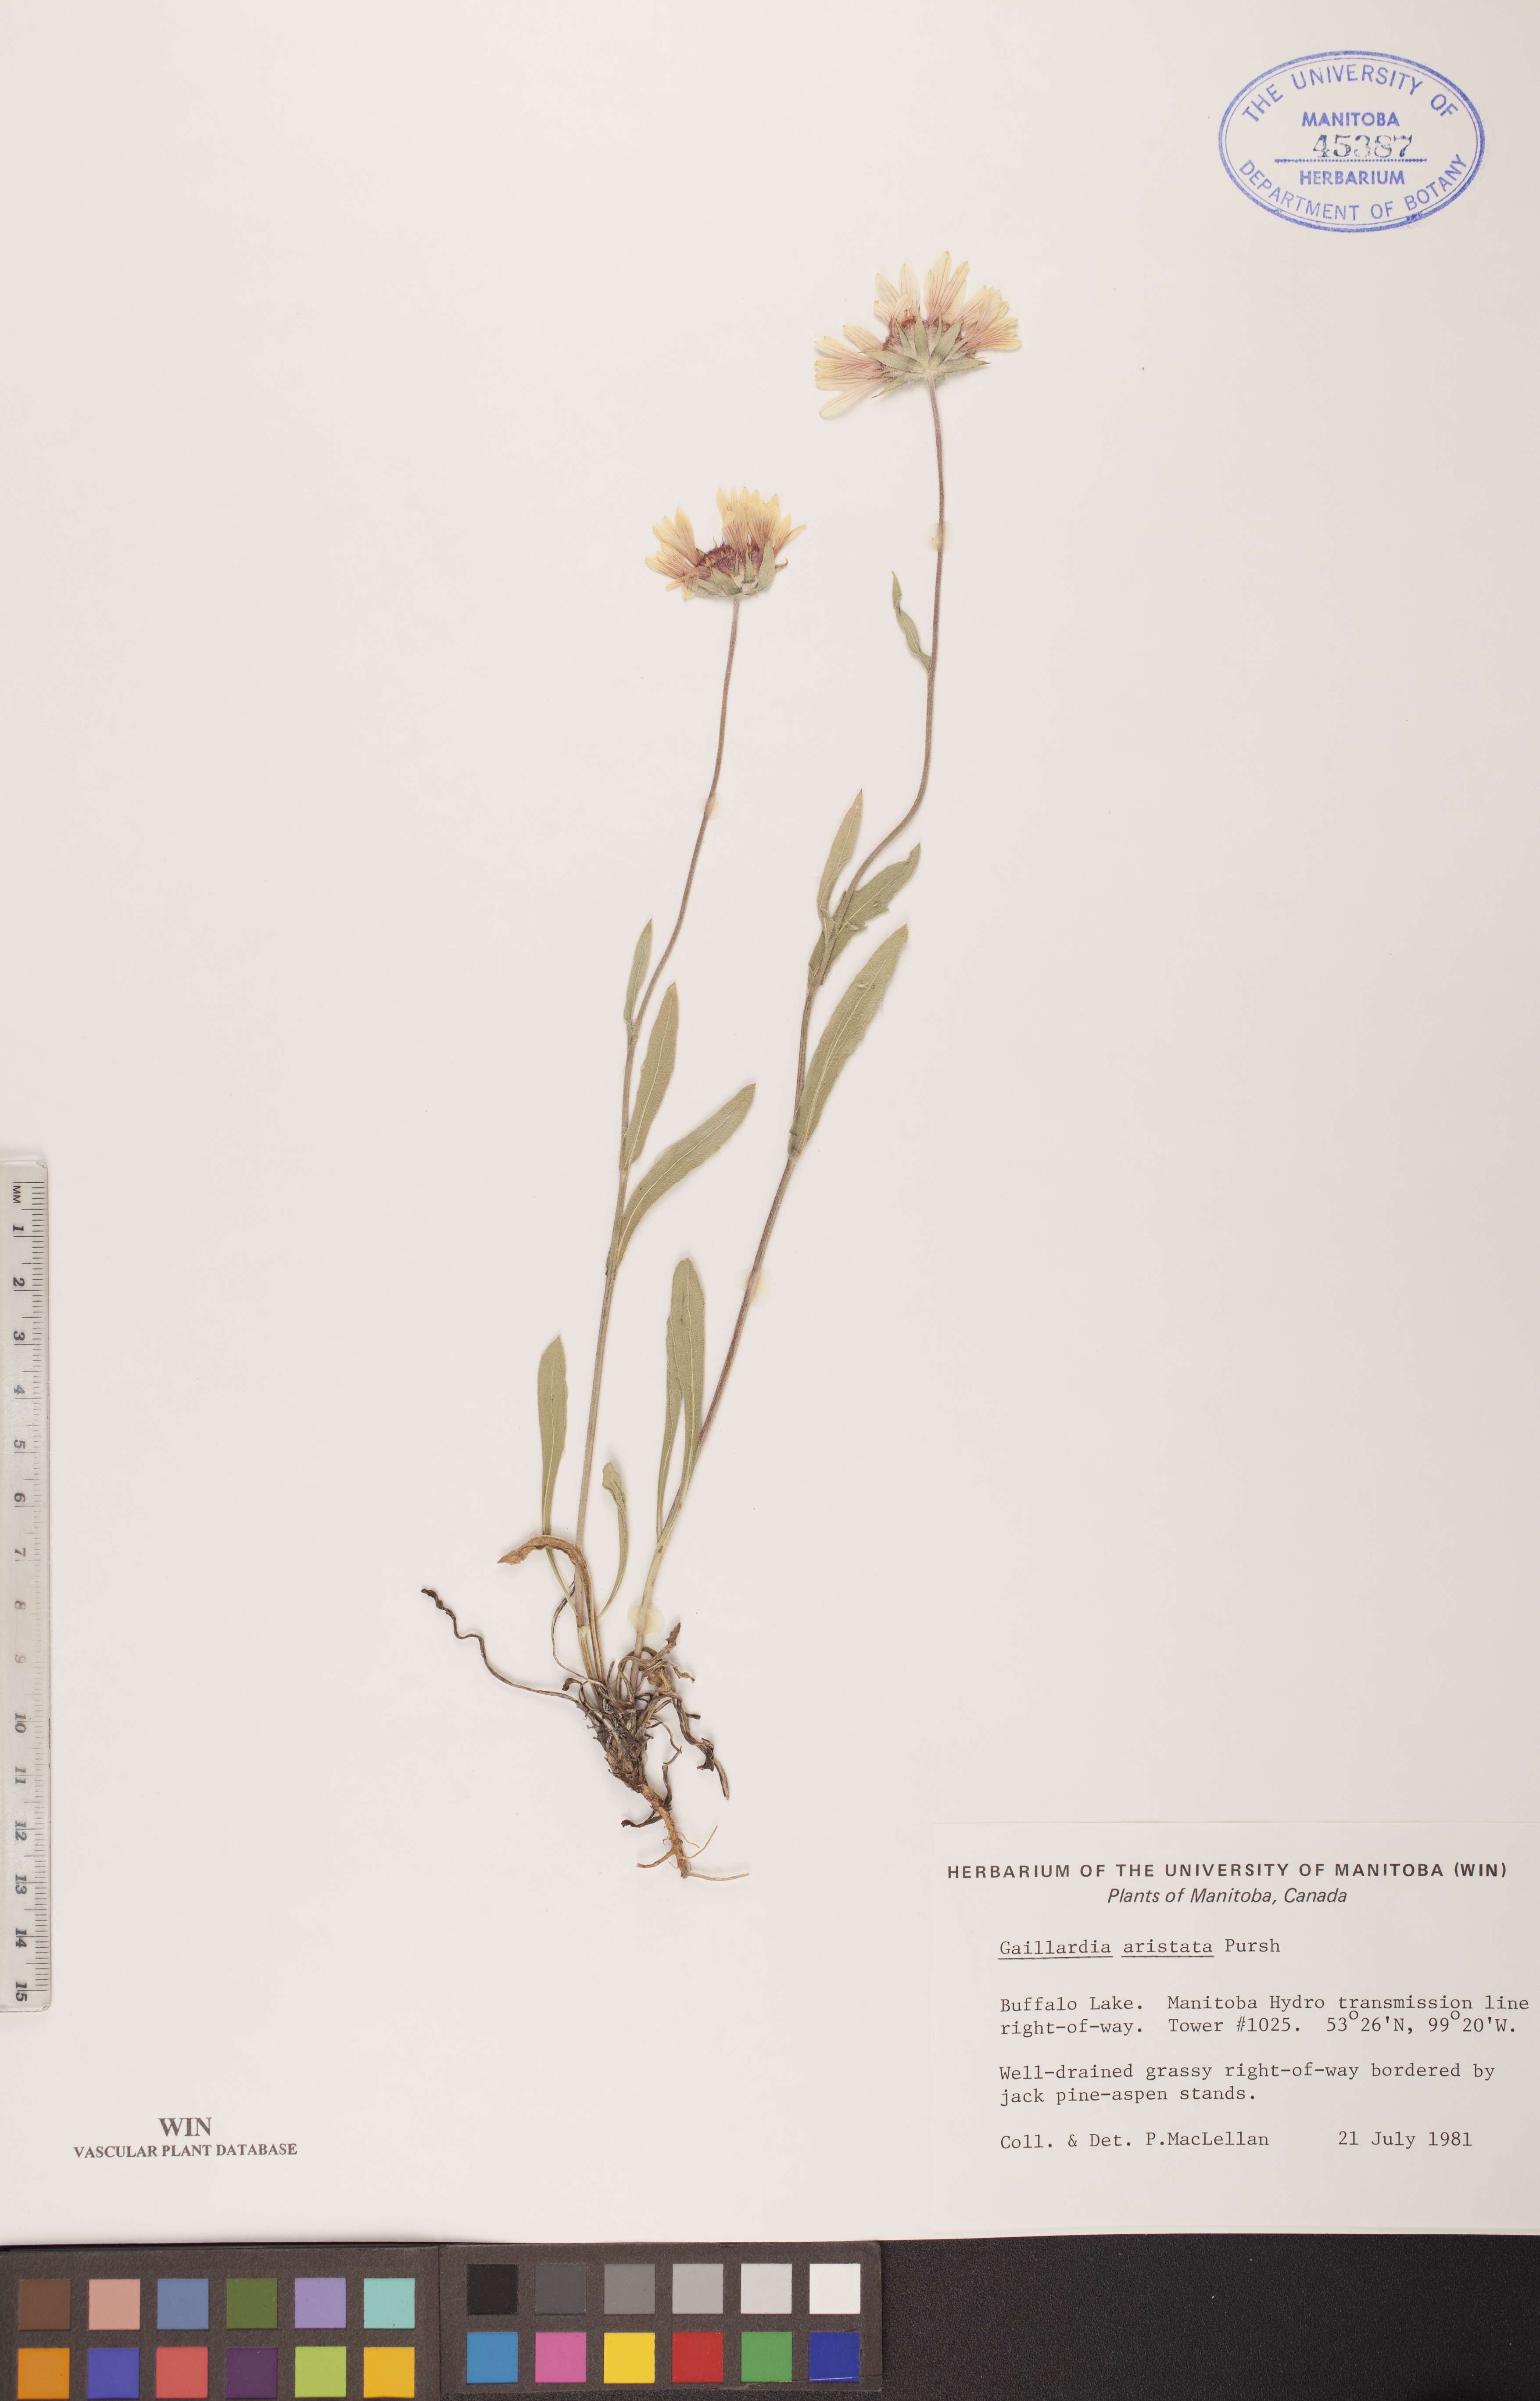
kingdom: Plantae
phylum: Tracheophyta
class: Magnoliopsida
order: Asterales
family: Asteraceae
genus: Gaillardia
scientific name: Gaillardia aristata
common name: Blanket-flower
